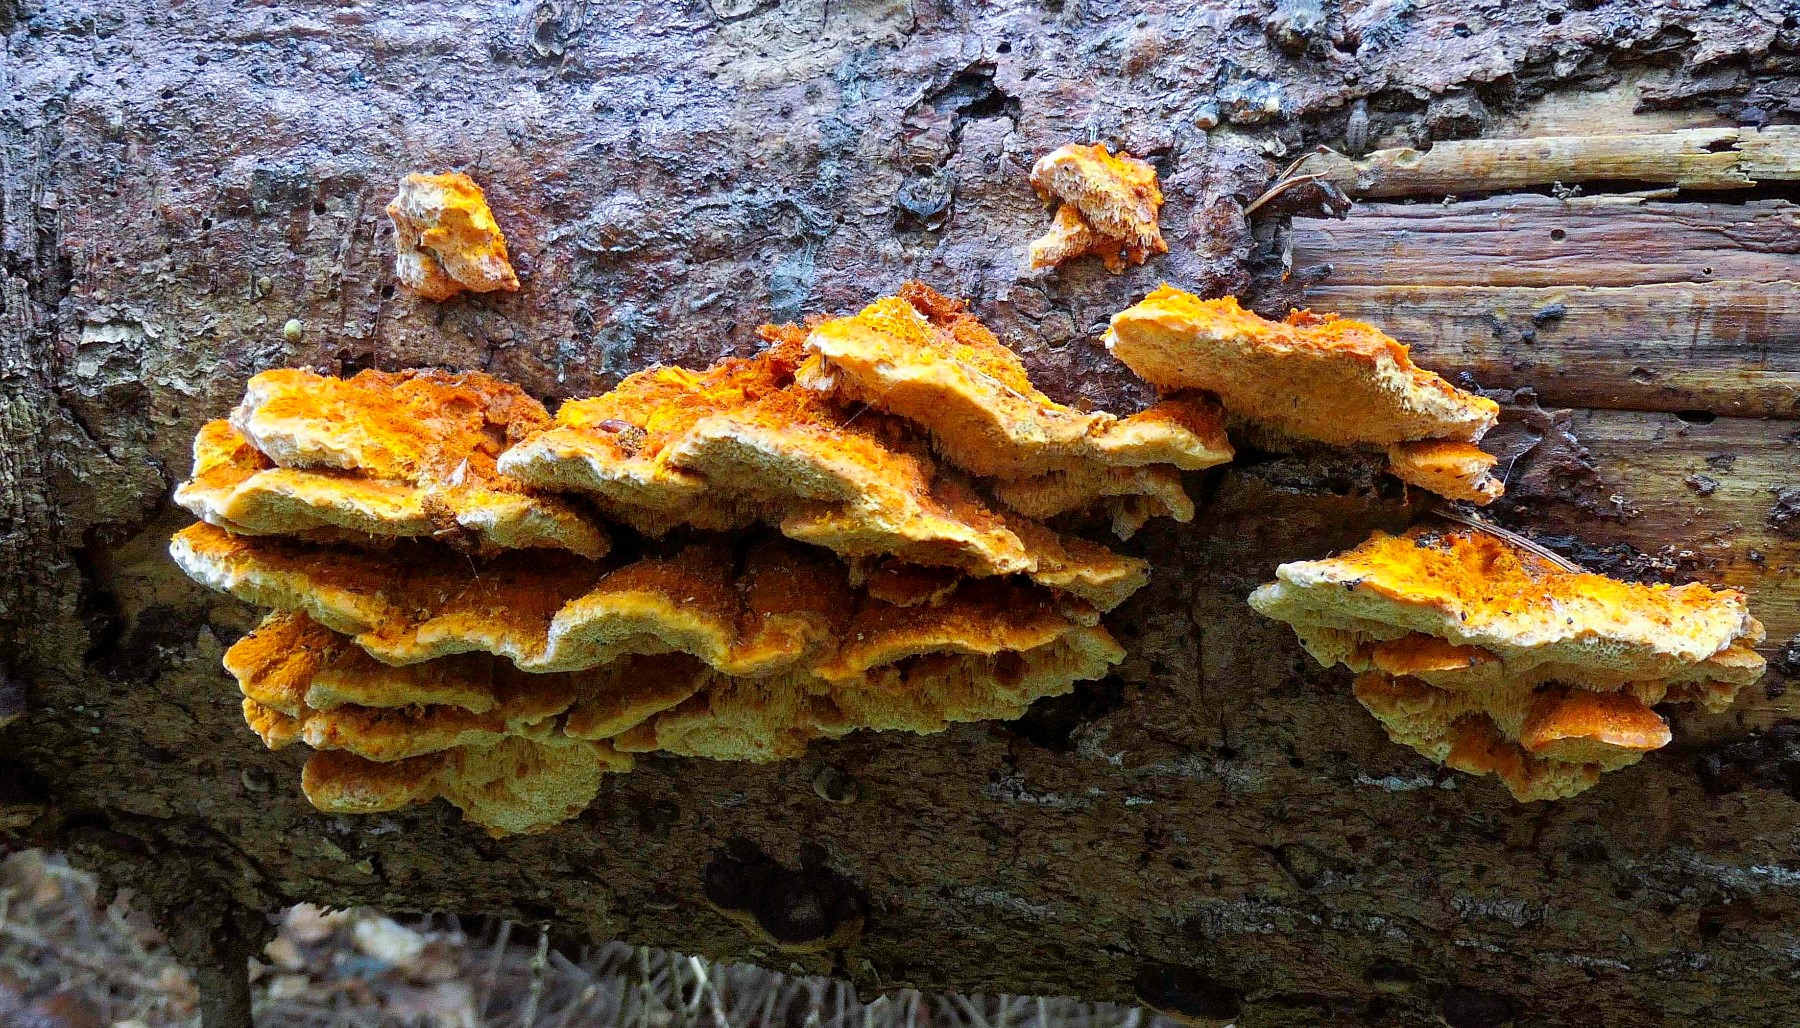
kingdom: Fungi
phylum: Basidiomycota
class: Agaricomycetes
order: Polyporales
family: Pycnoporellaceae
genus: Pycnoporellus
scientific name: Pycnoporellus fulgens
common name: flammeporesvamp
